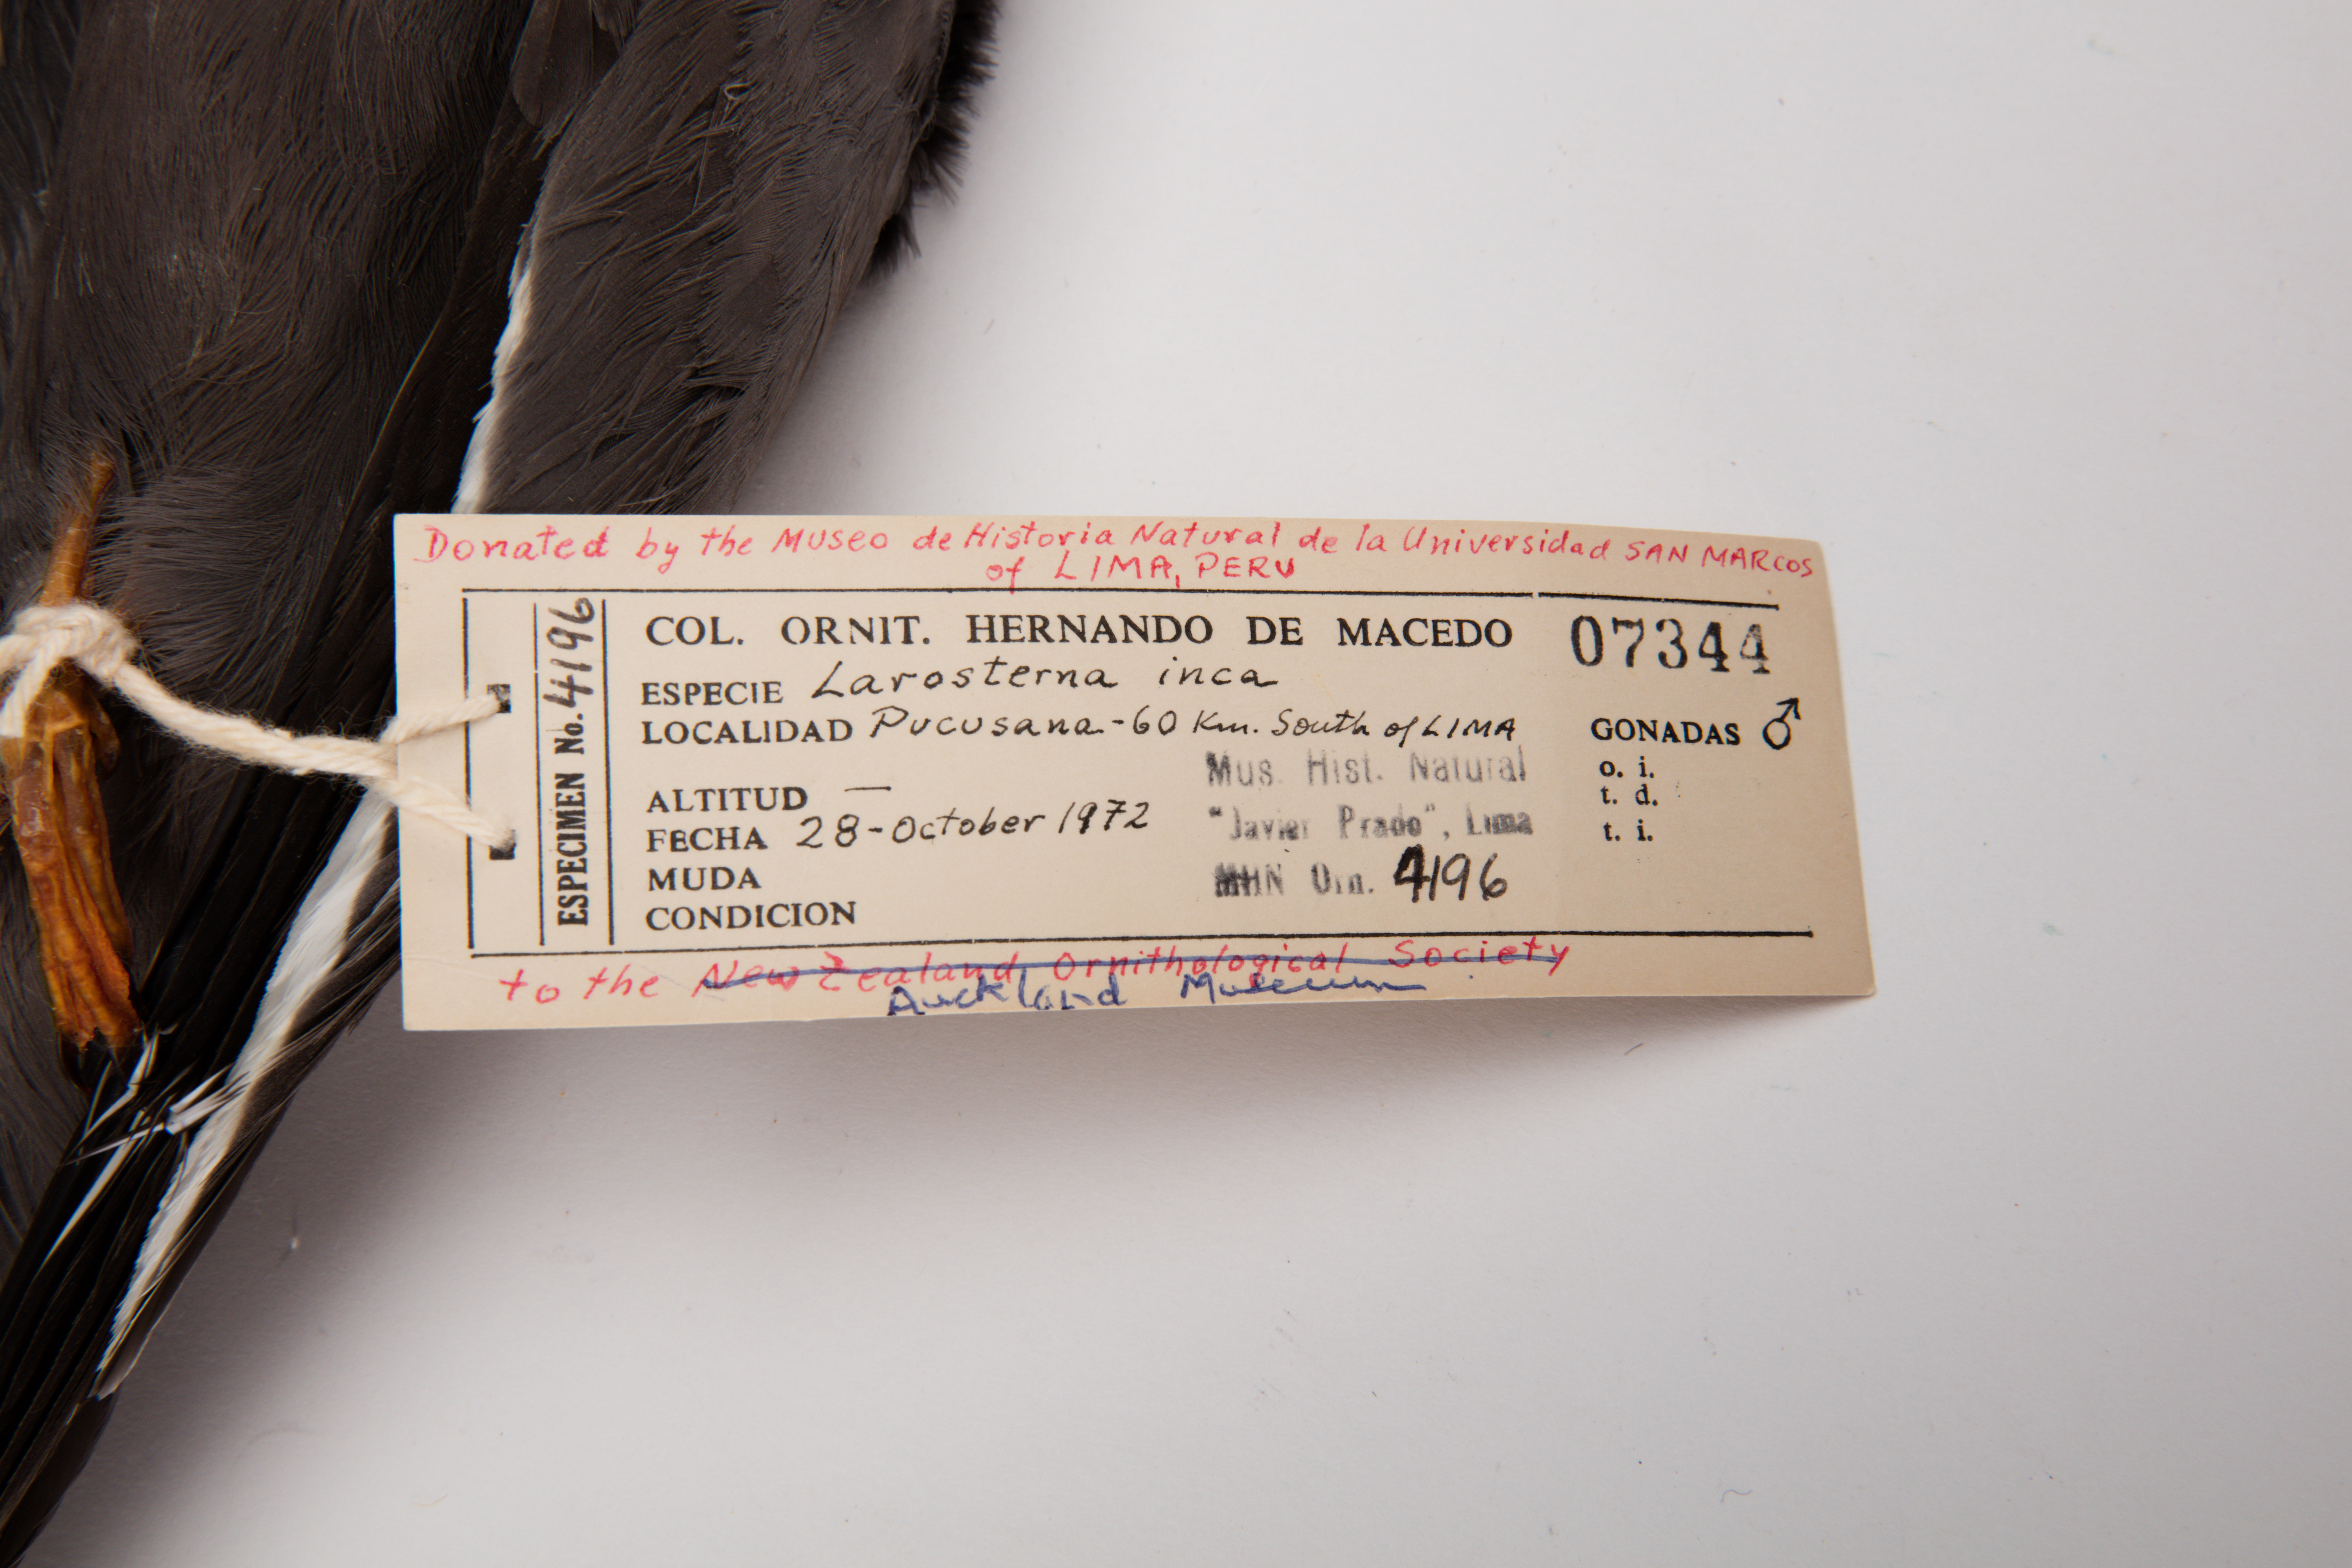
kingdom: Animalia
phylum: Chordata
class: Aves
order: Charadriiformes
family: Laridae
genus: Larosterna
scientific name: Larosterna inca
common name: Inca tern
